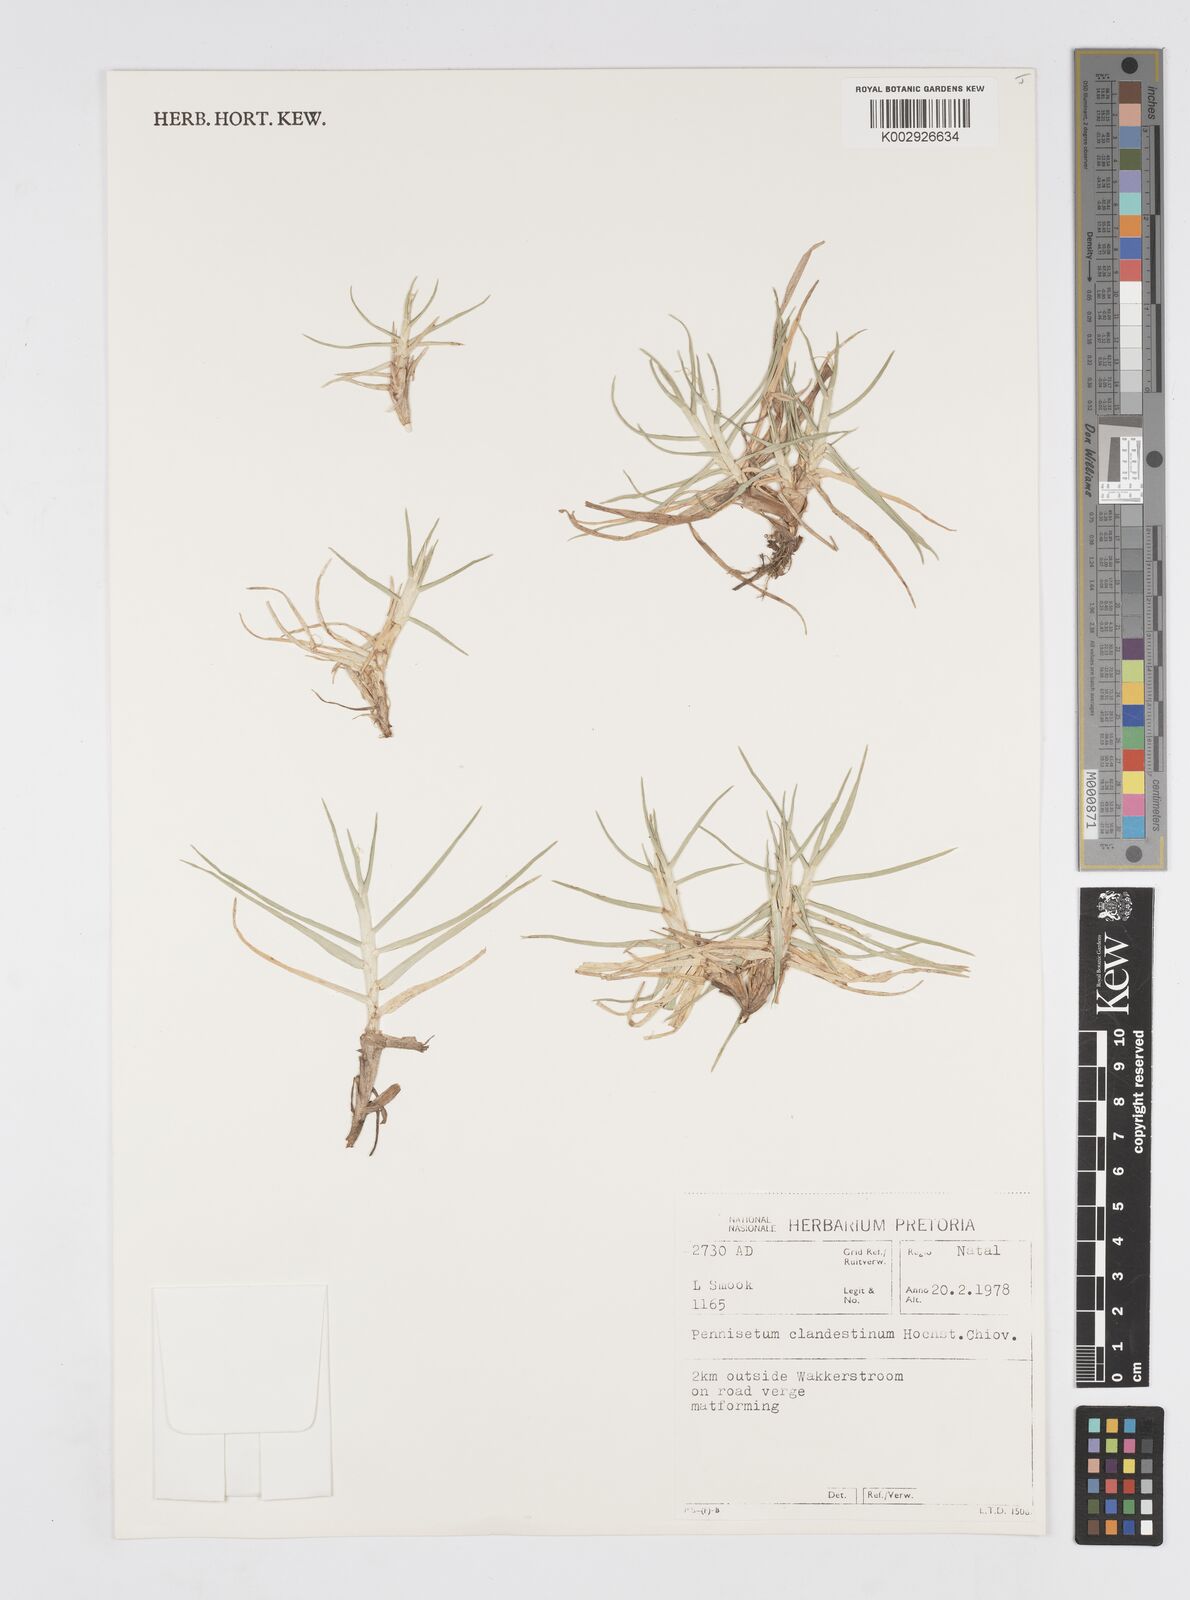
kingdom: Plantae
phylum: Tracheophyta
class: Liliopsida
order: Poales
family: Poaceae
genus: Cenchrus
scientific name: Cenchrus clandestinus
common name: Kikuyugrass
